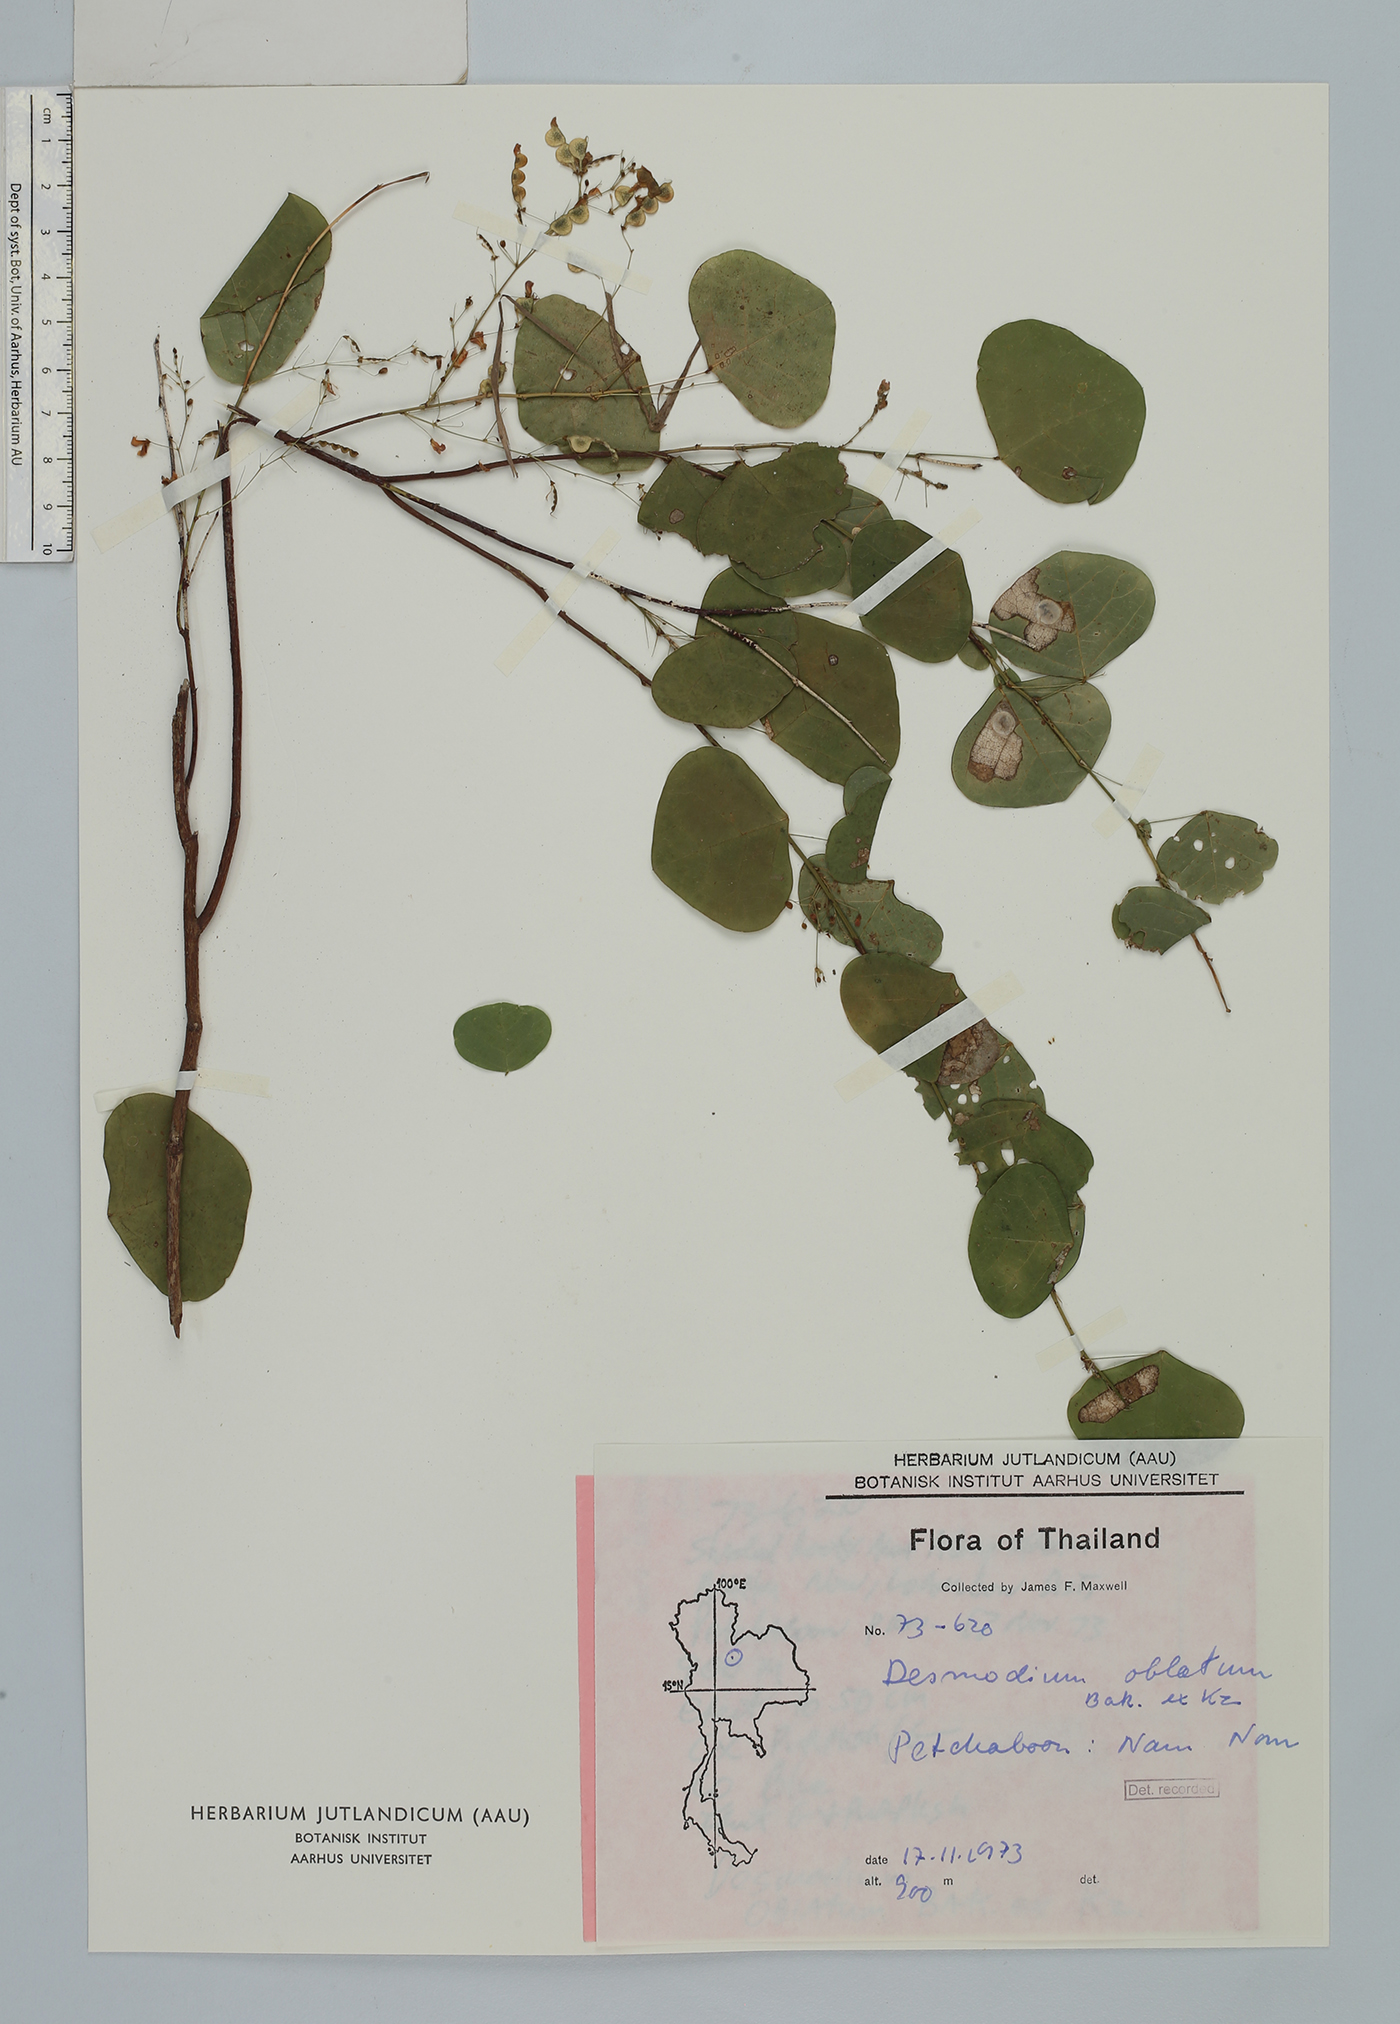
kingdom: Plantae
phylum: Tracheophyta
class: Magnoliopsida
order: Fabales
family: Fabaceae
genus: Huangtcia
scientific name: Huangtcia renifolia
